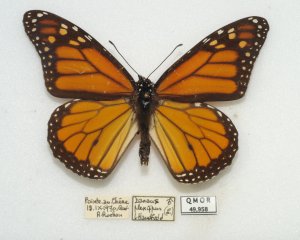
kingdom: Animalia
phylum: Arthropoda
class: Insecta
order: Lepidoptera
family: Nymphalidae
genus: Danaus
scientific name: Danaus plexippus
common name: Monarch
